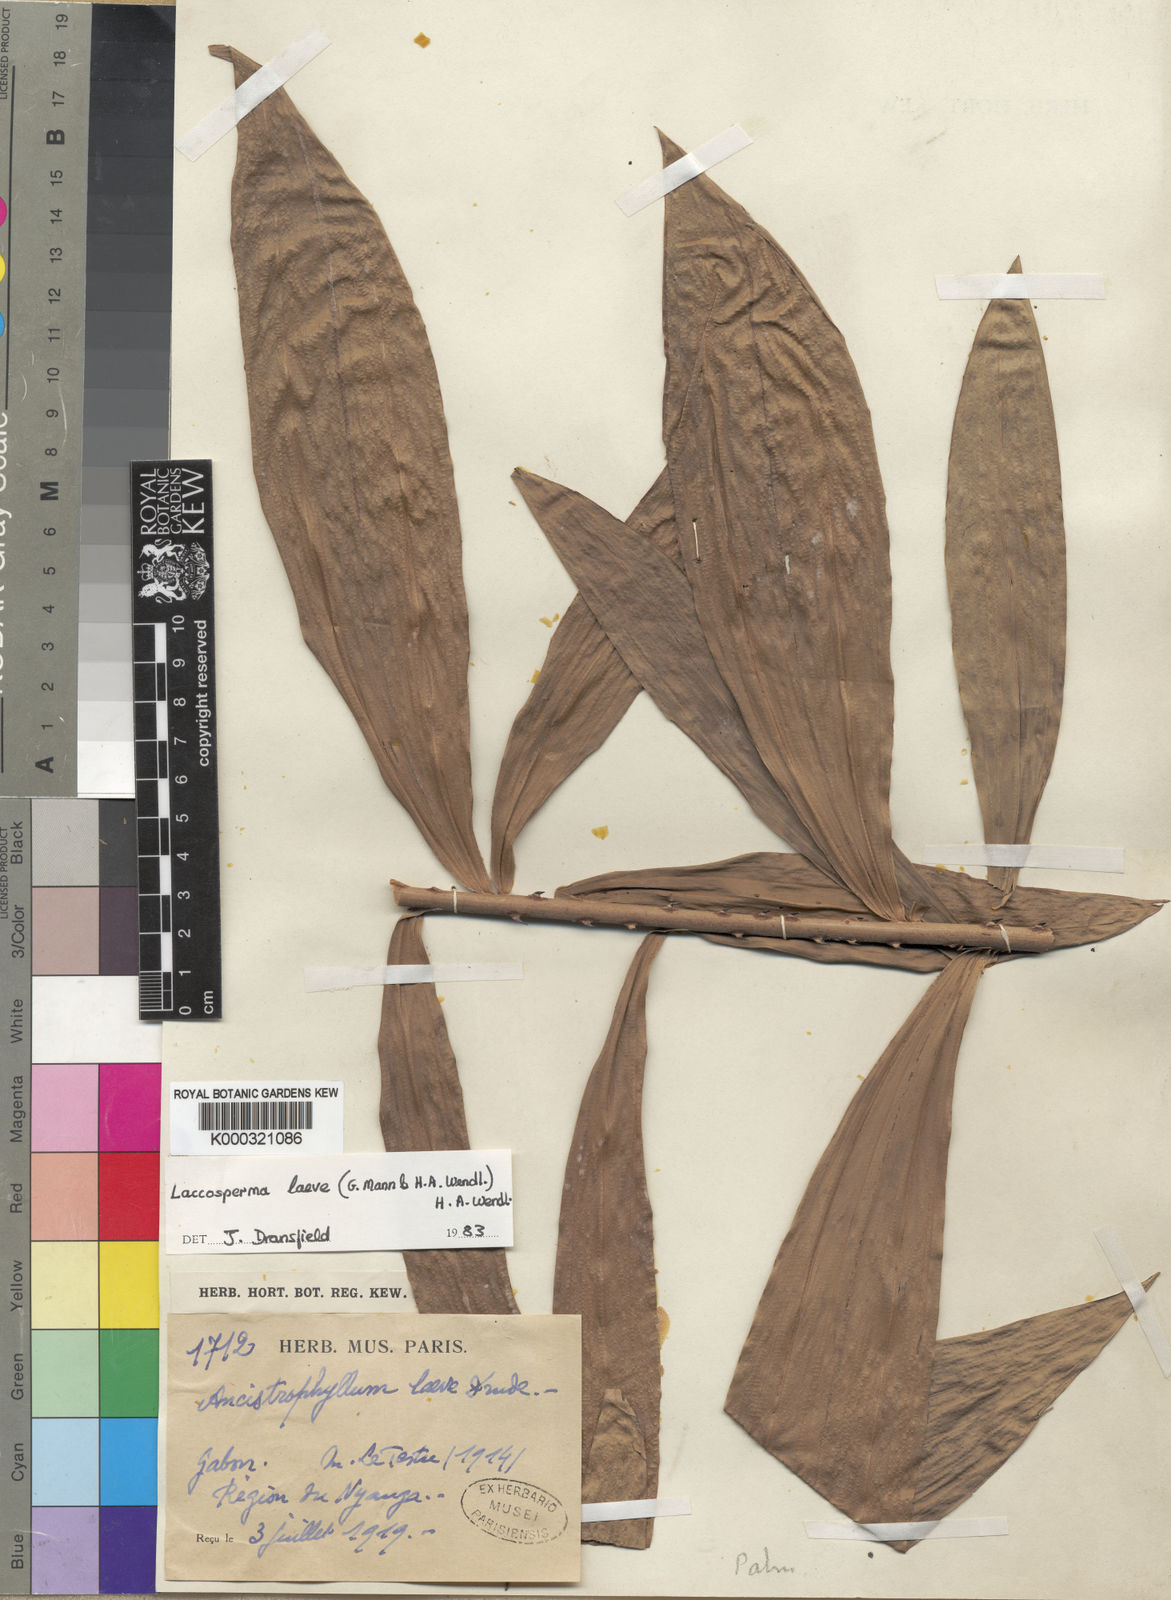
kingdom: Plantae
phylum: Tracheophyta
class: Liliopsida
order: Arecales
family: Arecaceae
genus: Laccosperma
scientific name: Laccosperma laeve
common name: Rattan
